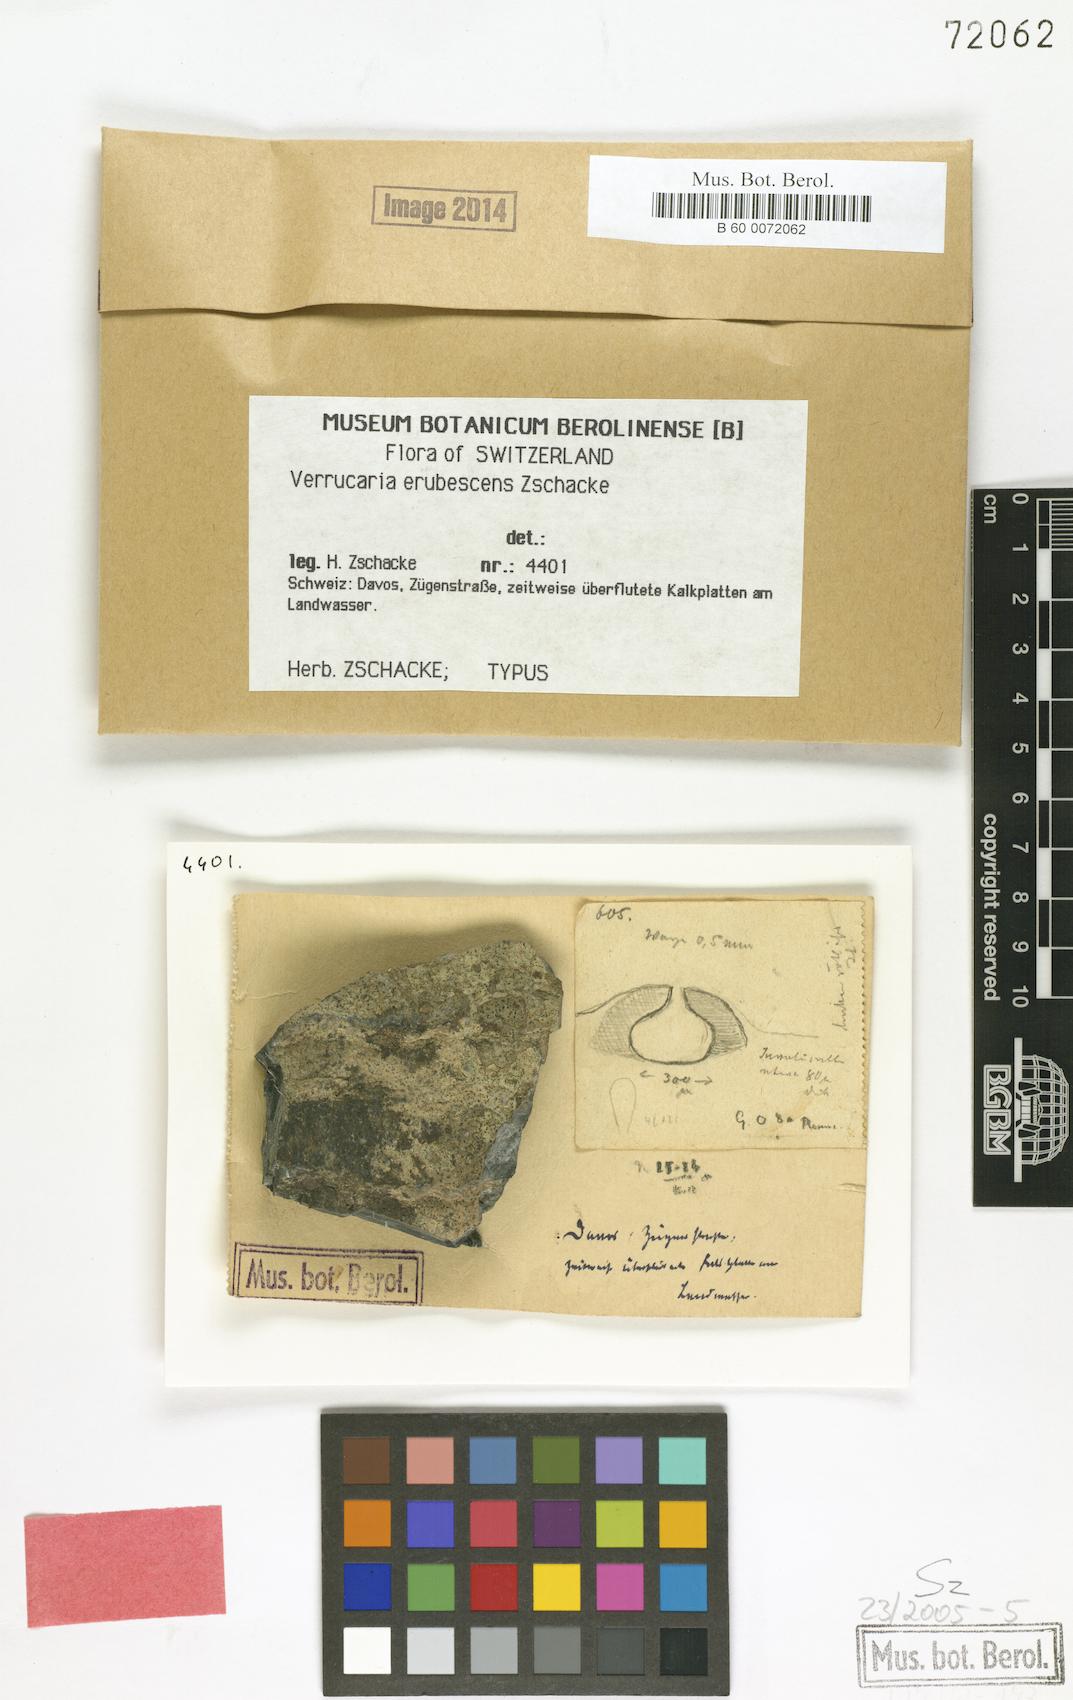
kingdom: Fungi
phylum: Ascomycota
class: Eurotiomycetes
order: Verrucariales
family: Verrucariaceae
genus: Verrucaria
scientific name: Verrucaria erubescens
